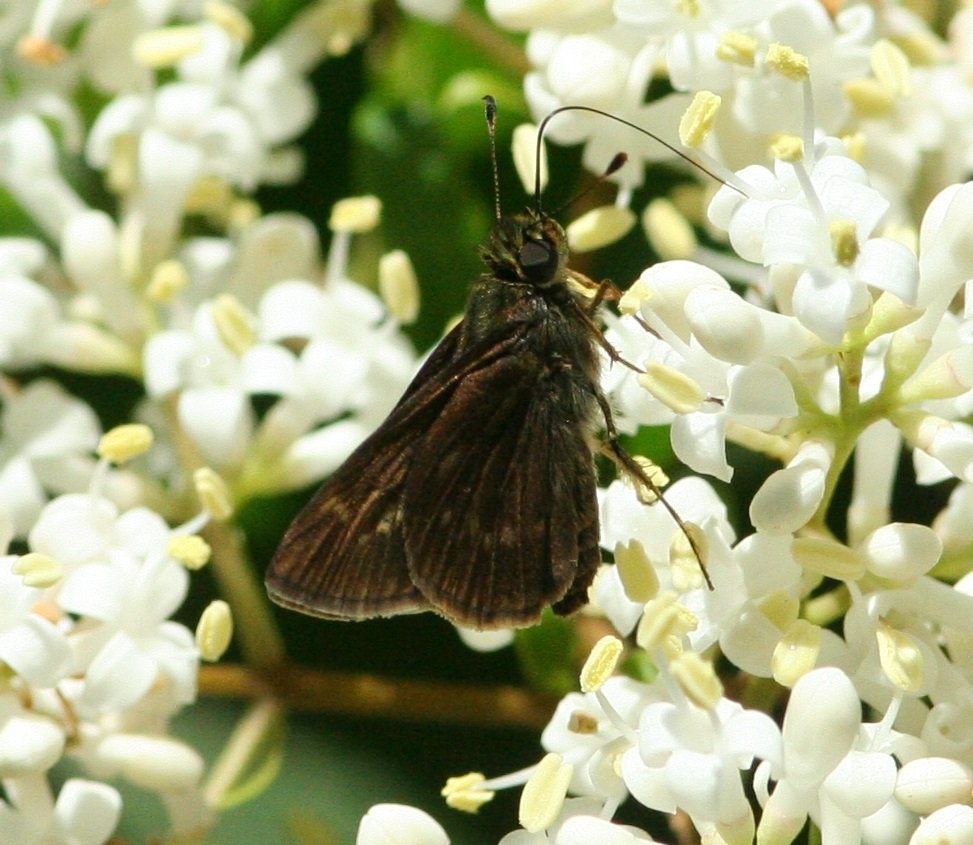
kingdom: Animalia
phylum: Arthropoda
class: Insecta
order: Lepidoptera
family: Hesperiidae
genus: Vernia
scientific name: Vernia verna
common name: Little Glassywing
